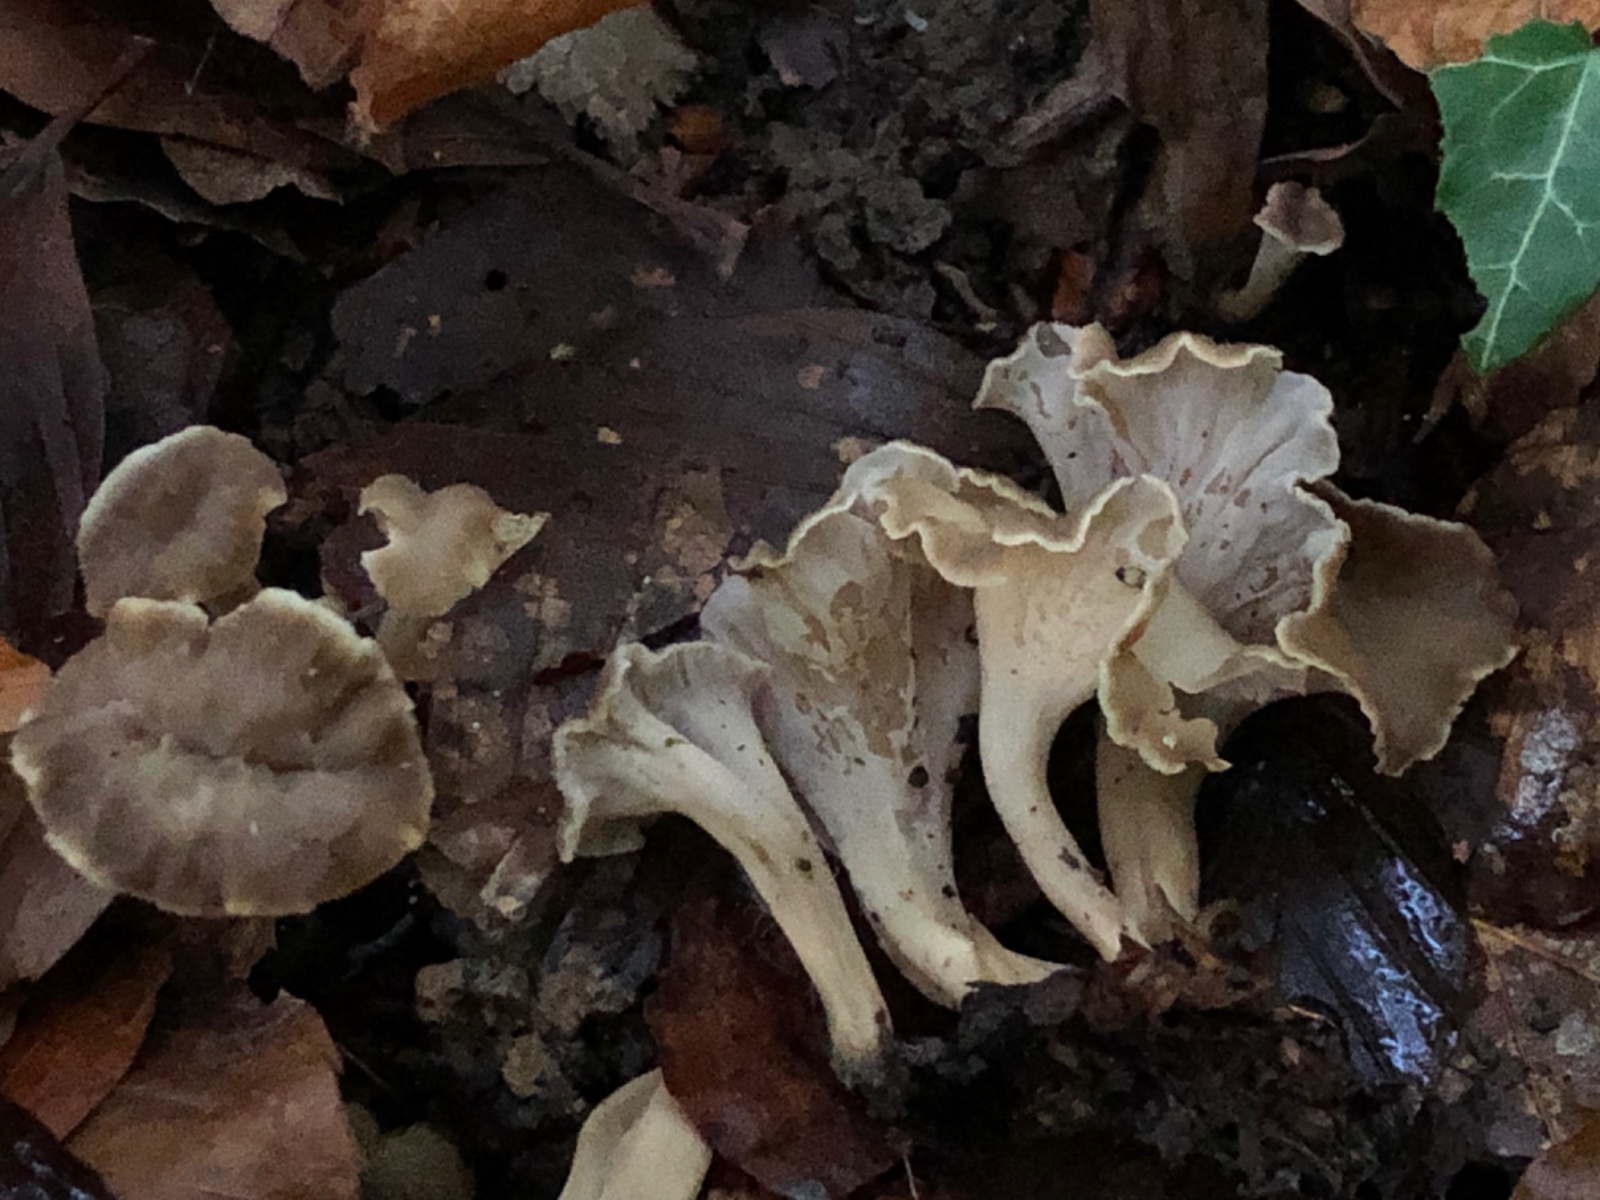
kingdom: Fungi
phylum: Basidiomycota
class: Agaricomycetes
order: Cantharellales
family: Hydnaceae
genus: Craterellus
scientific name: Craterellus undulatus
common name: liden kantarel
